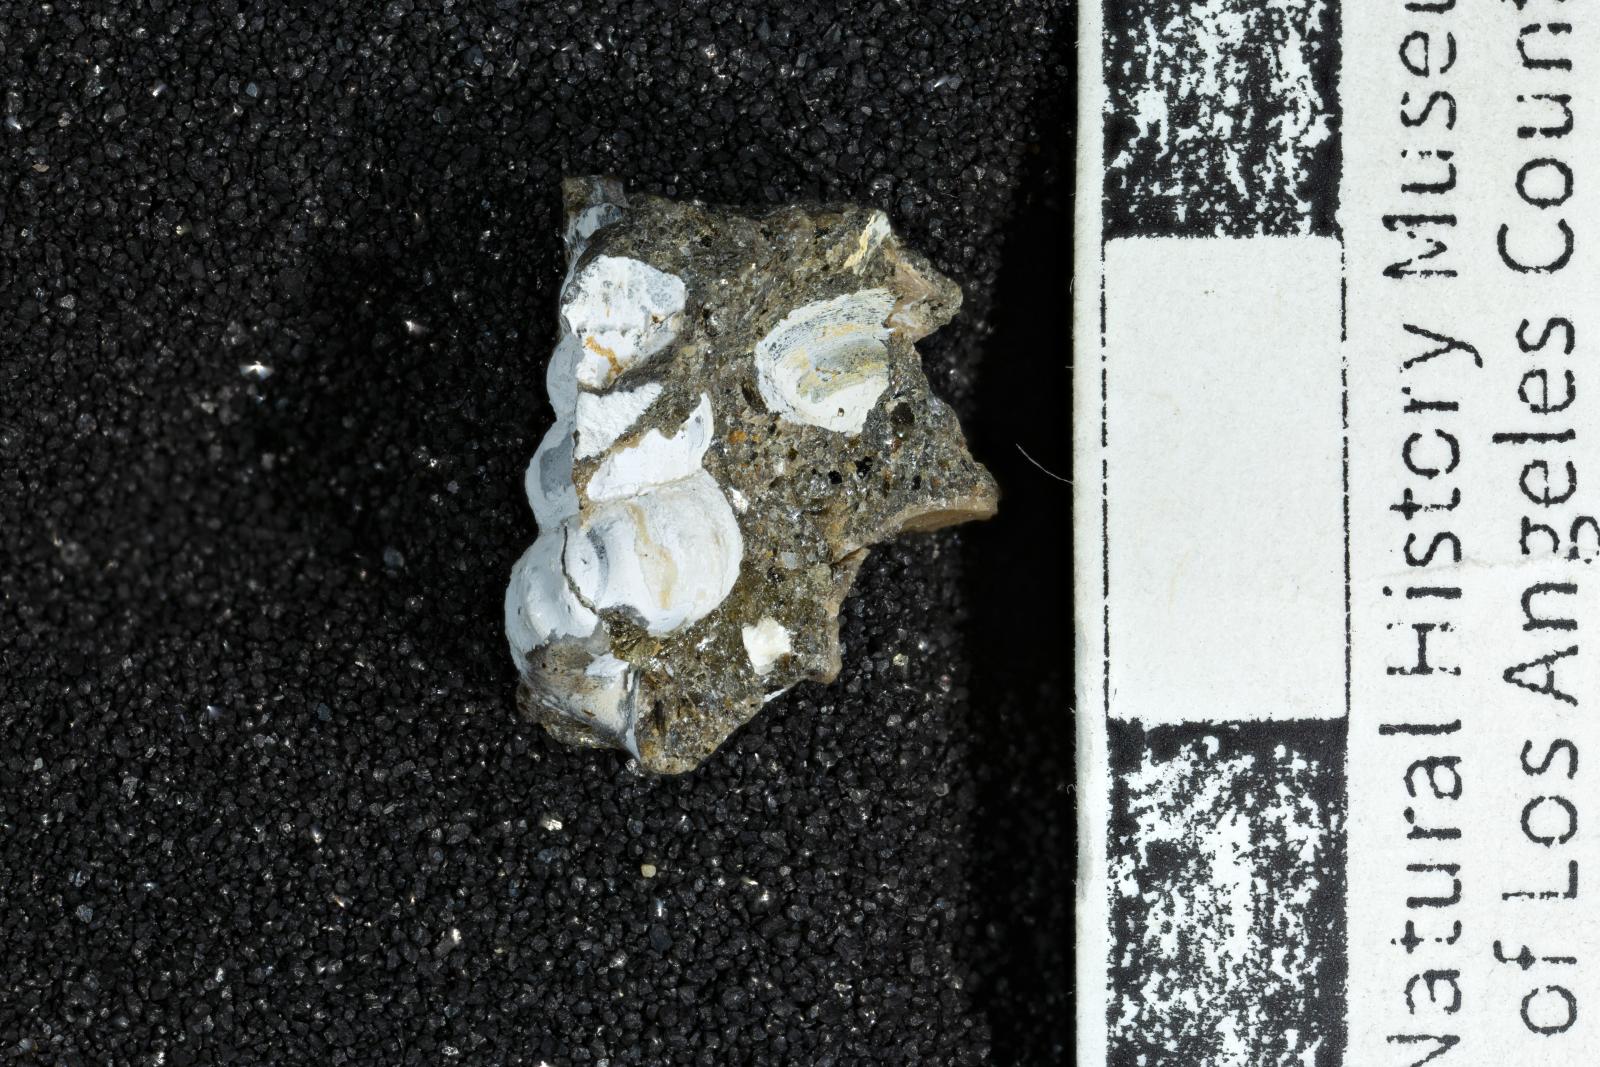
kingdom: Animalia
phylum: Mollusca
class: Gastropoda
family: Epitoniidae
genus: Opalia
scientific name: Opalia cavea
